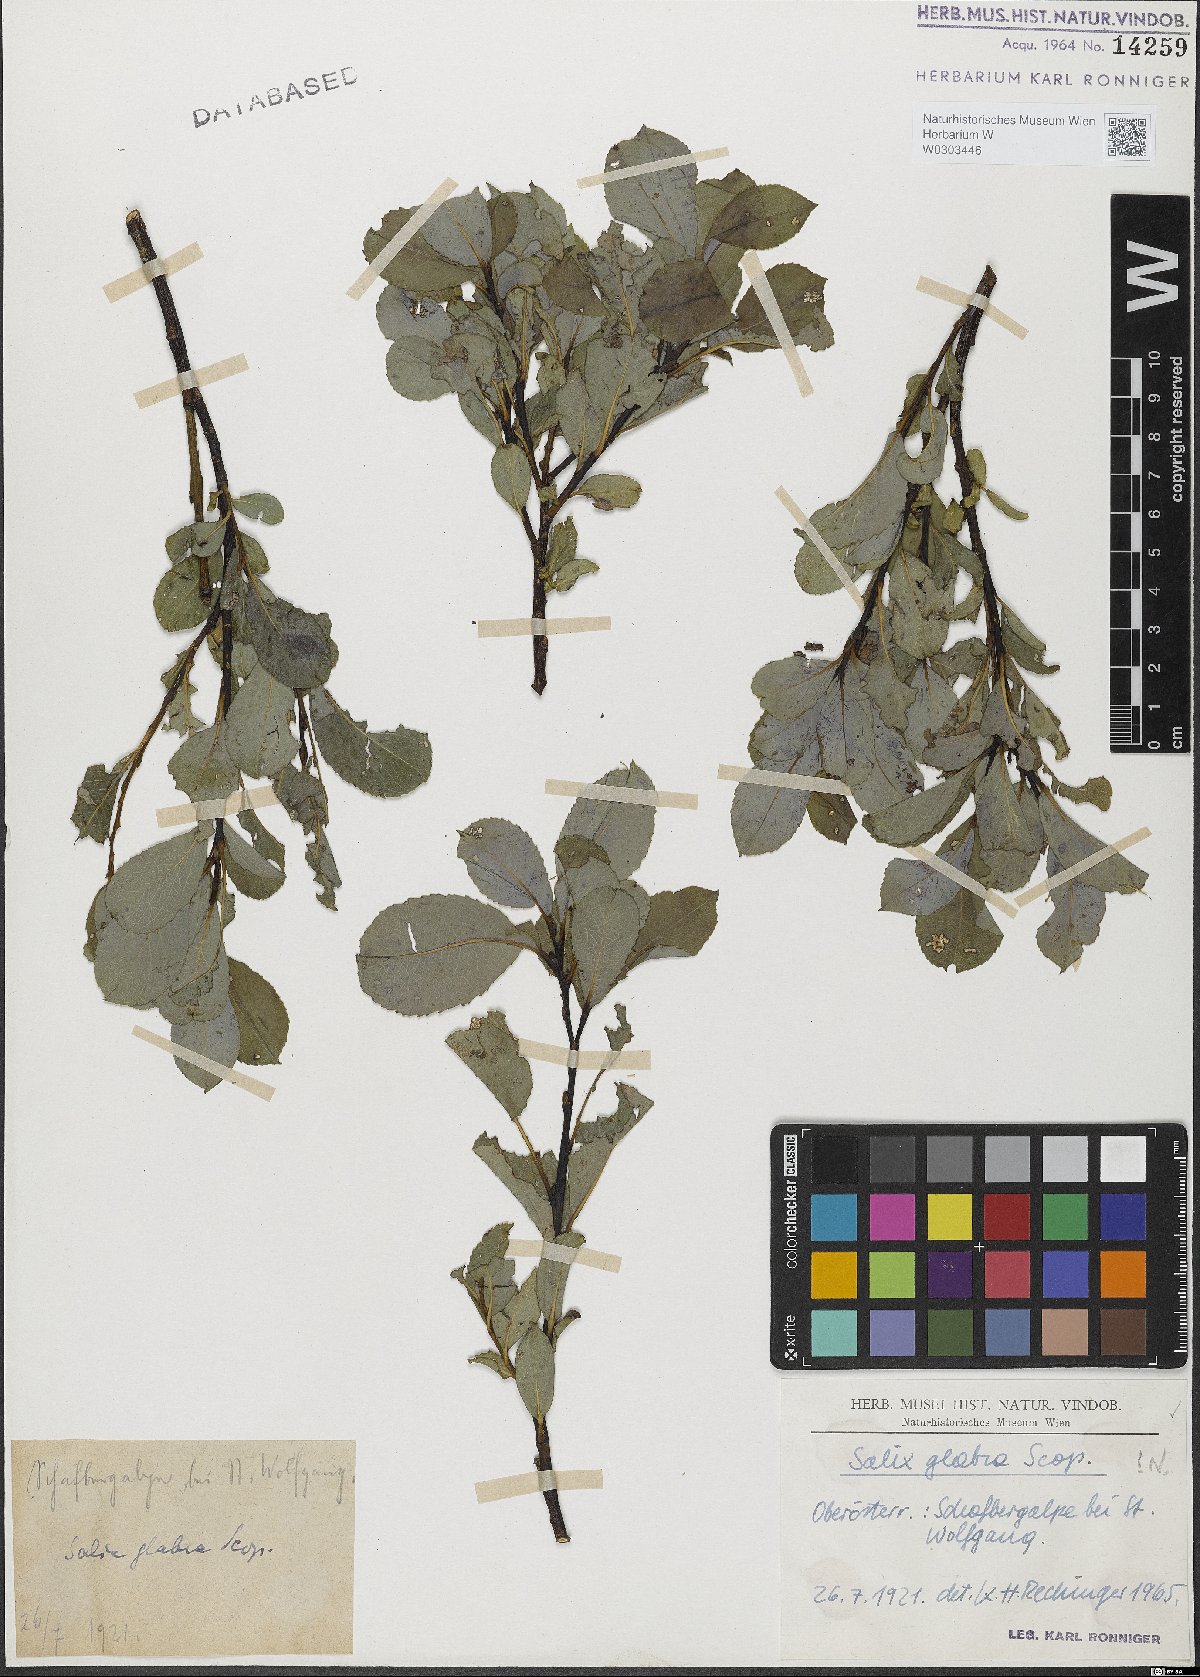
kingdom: Plantae
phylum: Tracheophyta
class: Magnoliopsida
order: Malpighiales
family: Salicaceae
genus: Salix
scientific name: Salix glabra
